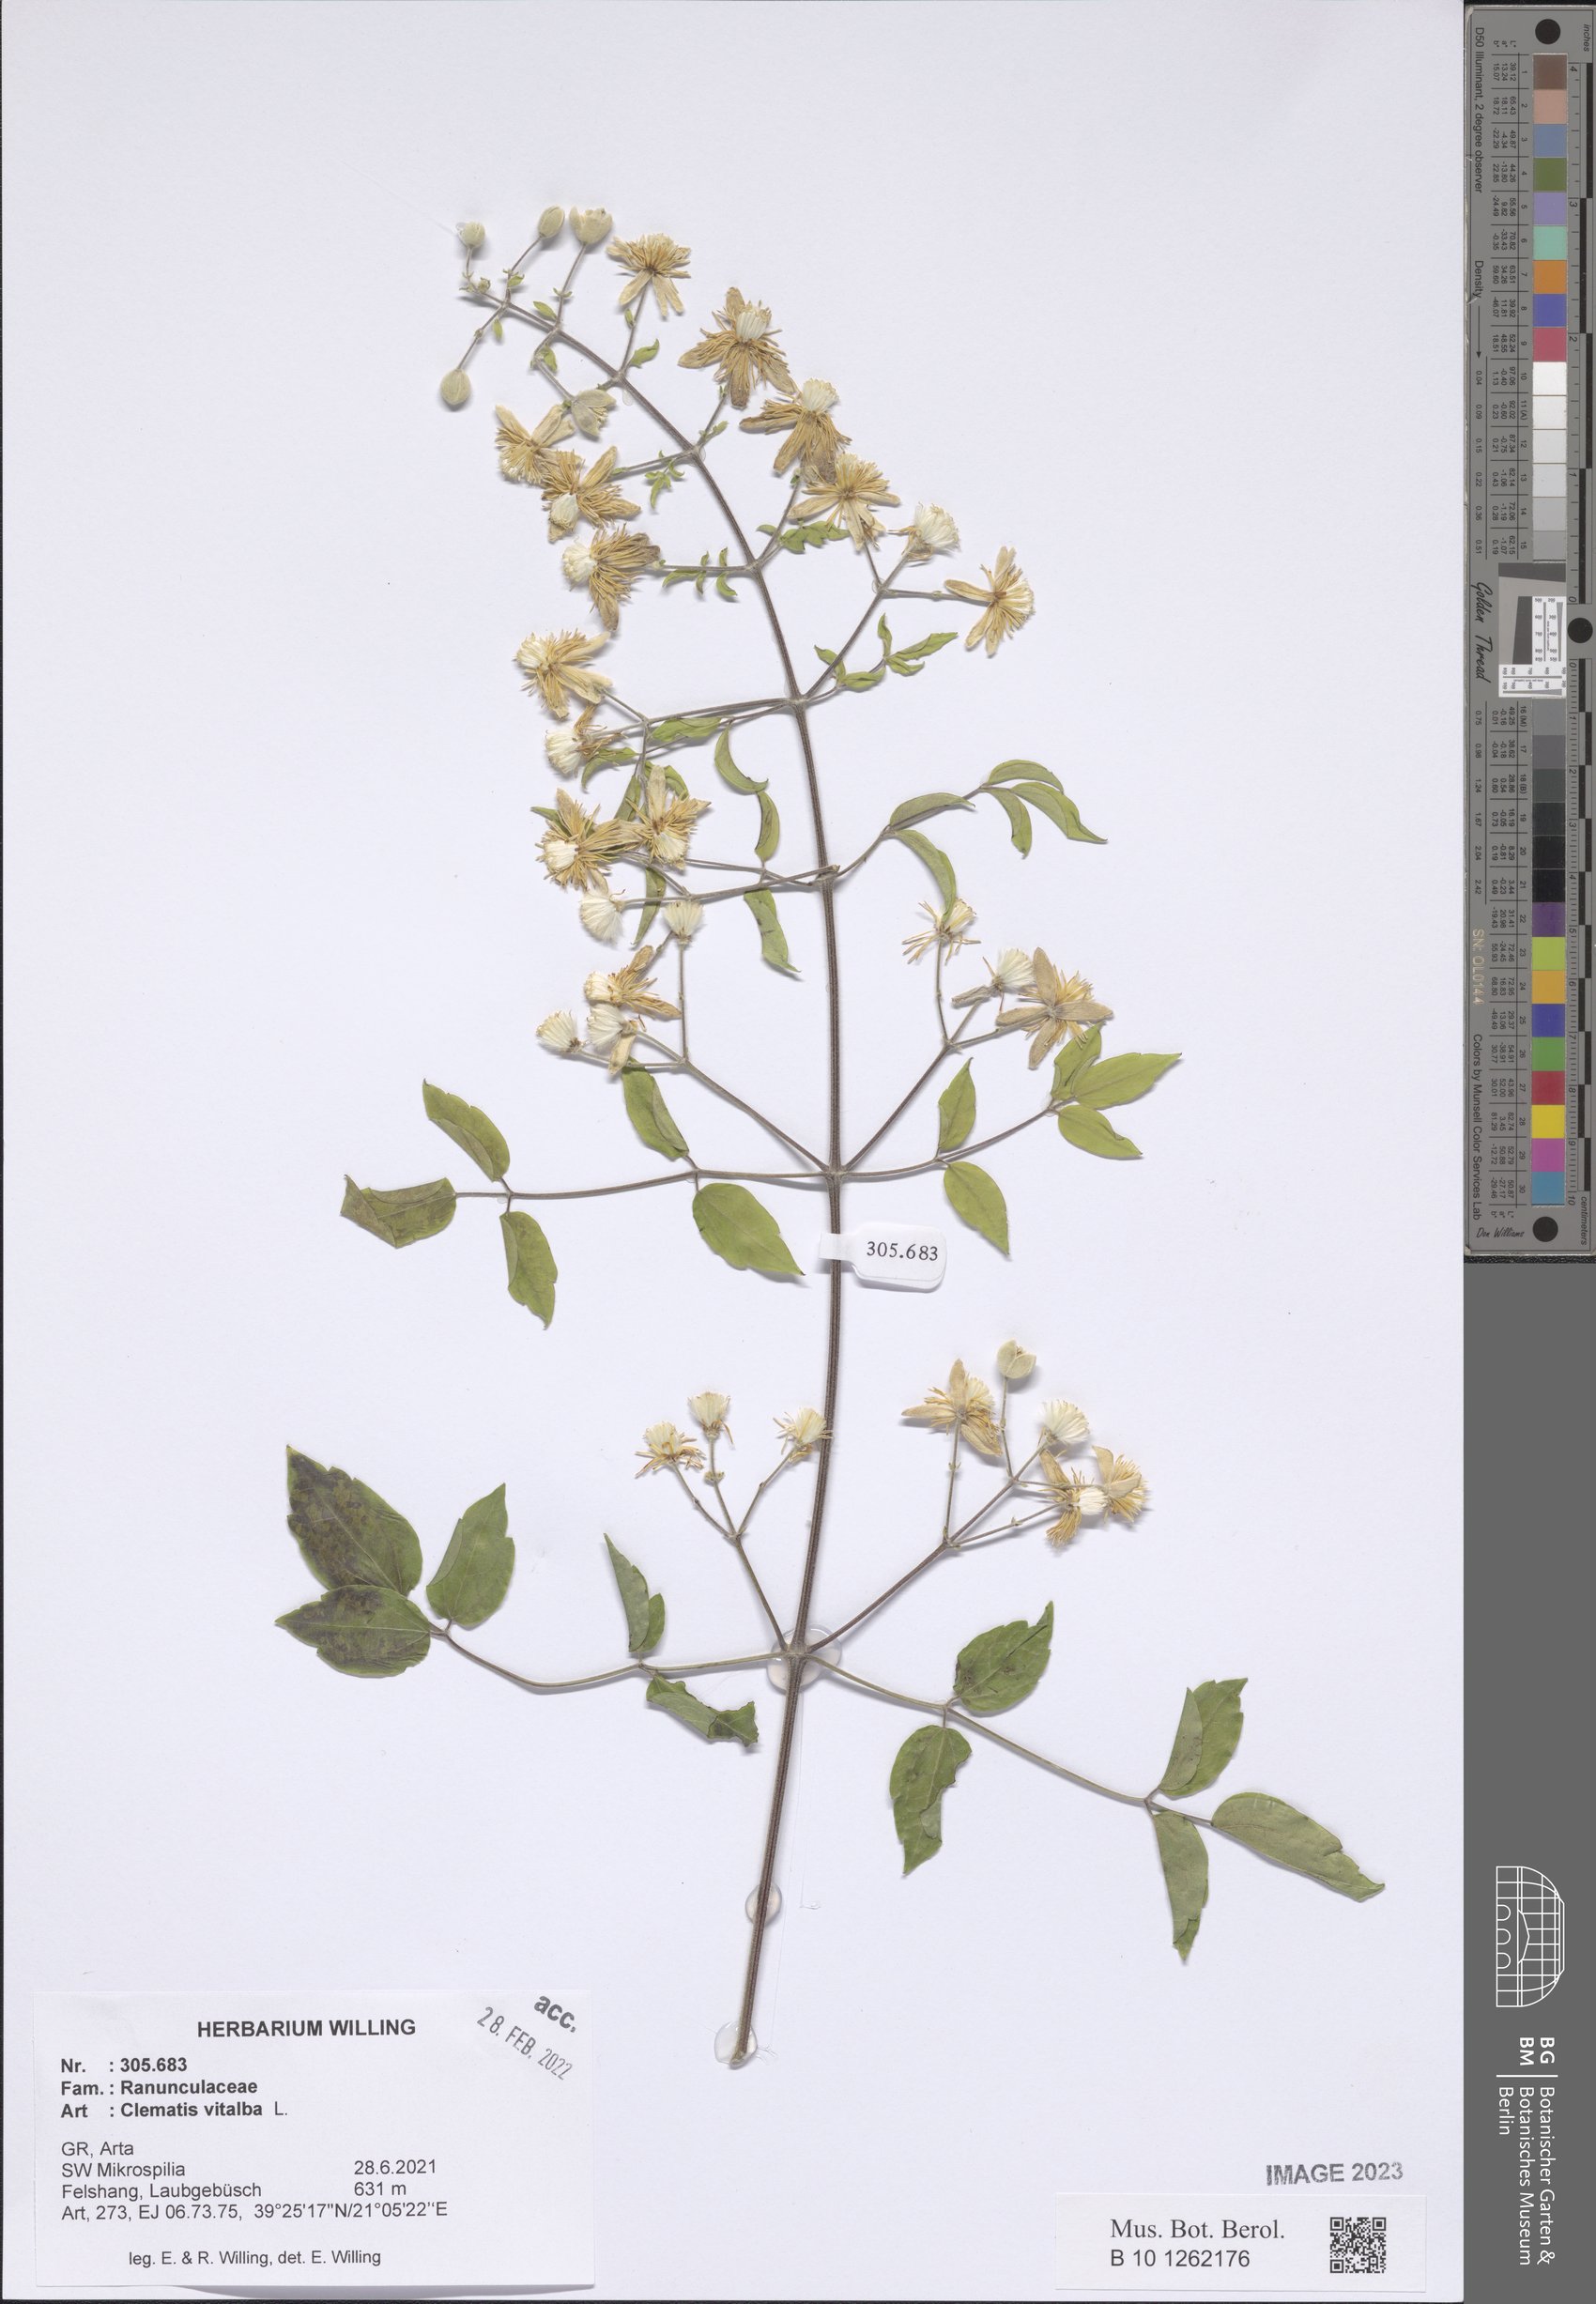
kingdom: Plantae
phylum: Tracheophyta
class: Magnoliopsida
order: Ranunculales
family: Ranunculaceae
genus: Clematis
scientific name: Clematis vitalba
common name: Evergreen clematis
